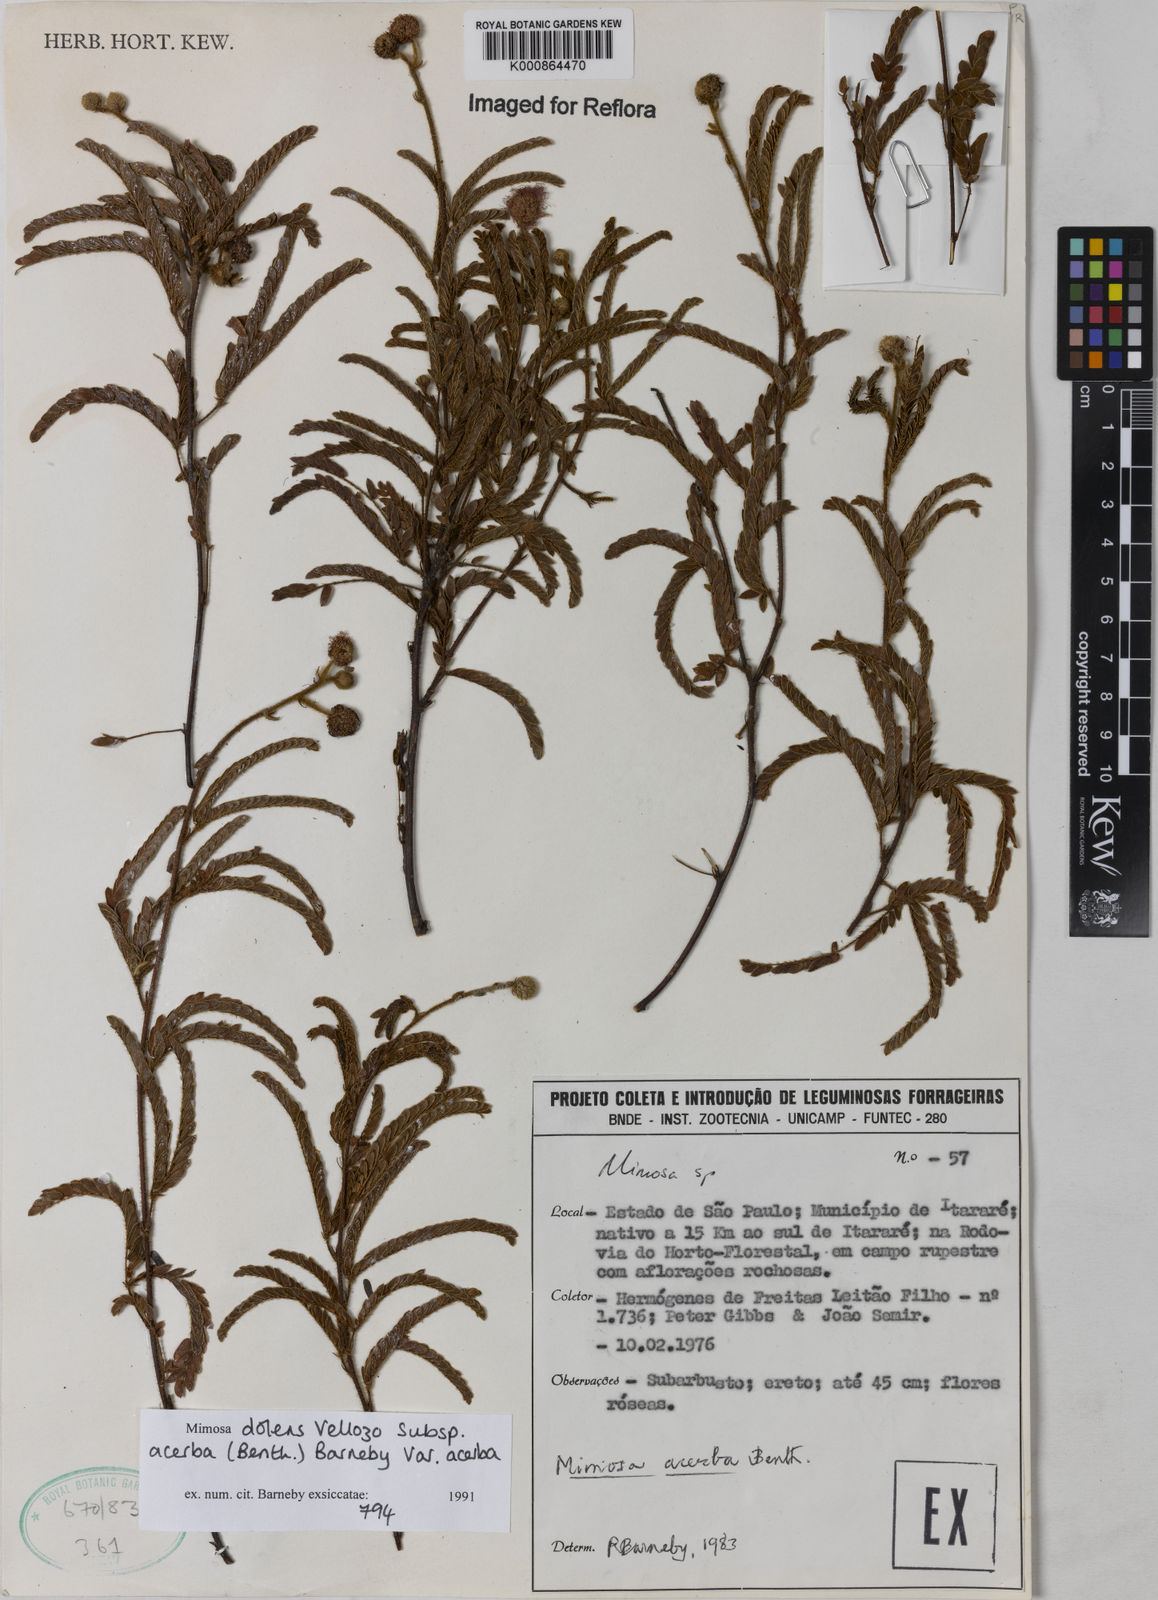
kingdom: Plantae
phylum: Tracheophyta
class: Magnoliopsida
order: Fabales
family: Fabaceae
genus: Mimosa
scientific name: Mimosa dolens
